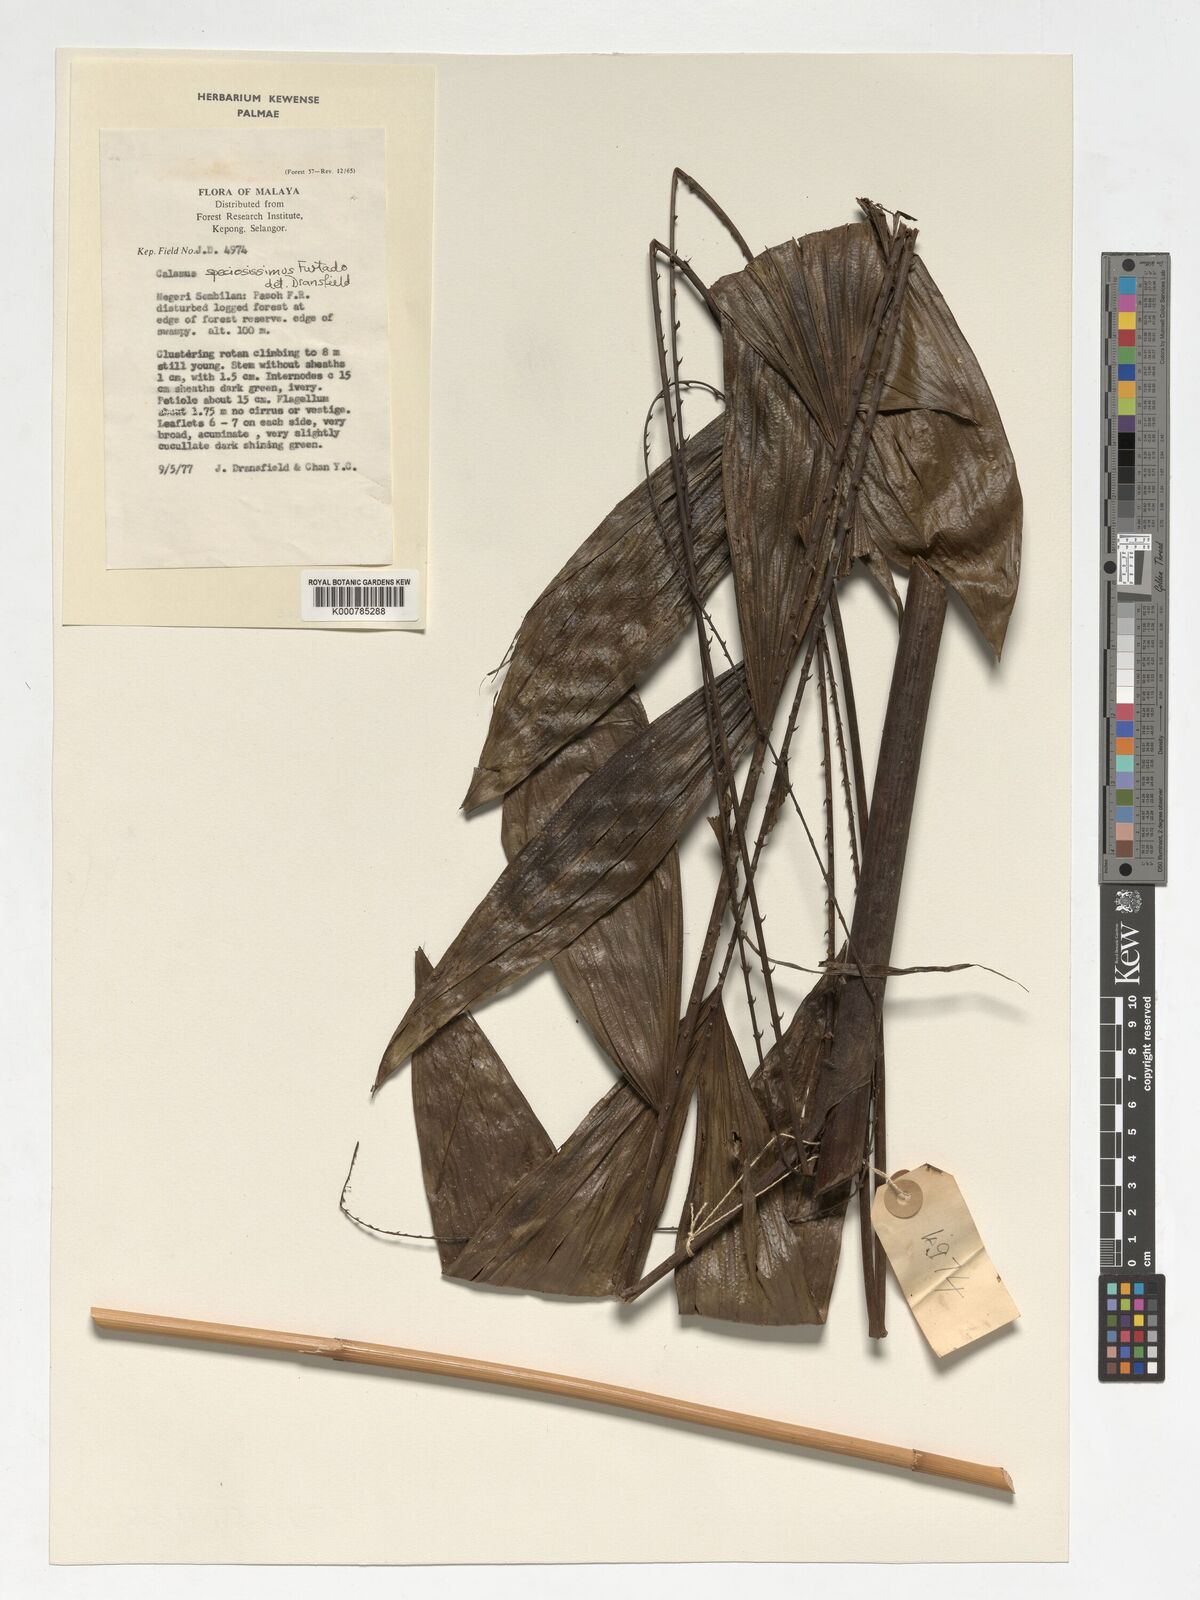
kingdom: Plantae
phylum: Tracheophyta
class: Liliopsida
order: Arecales
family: Arecaceae
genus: Calamus
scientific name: Calamus micranthus
